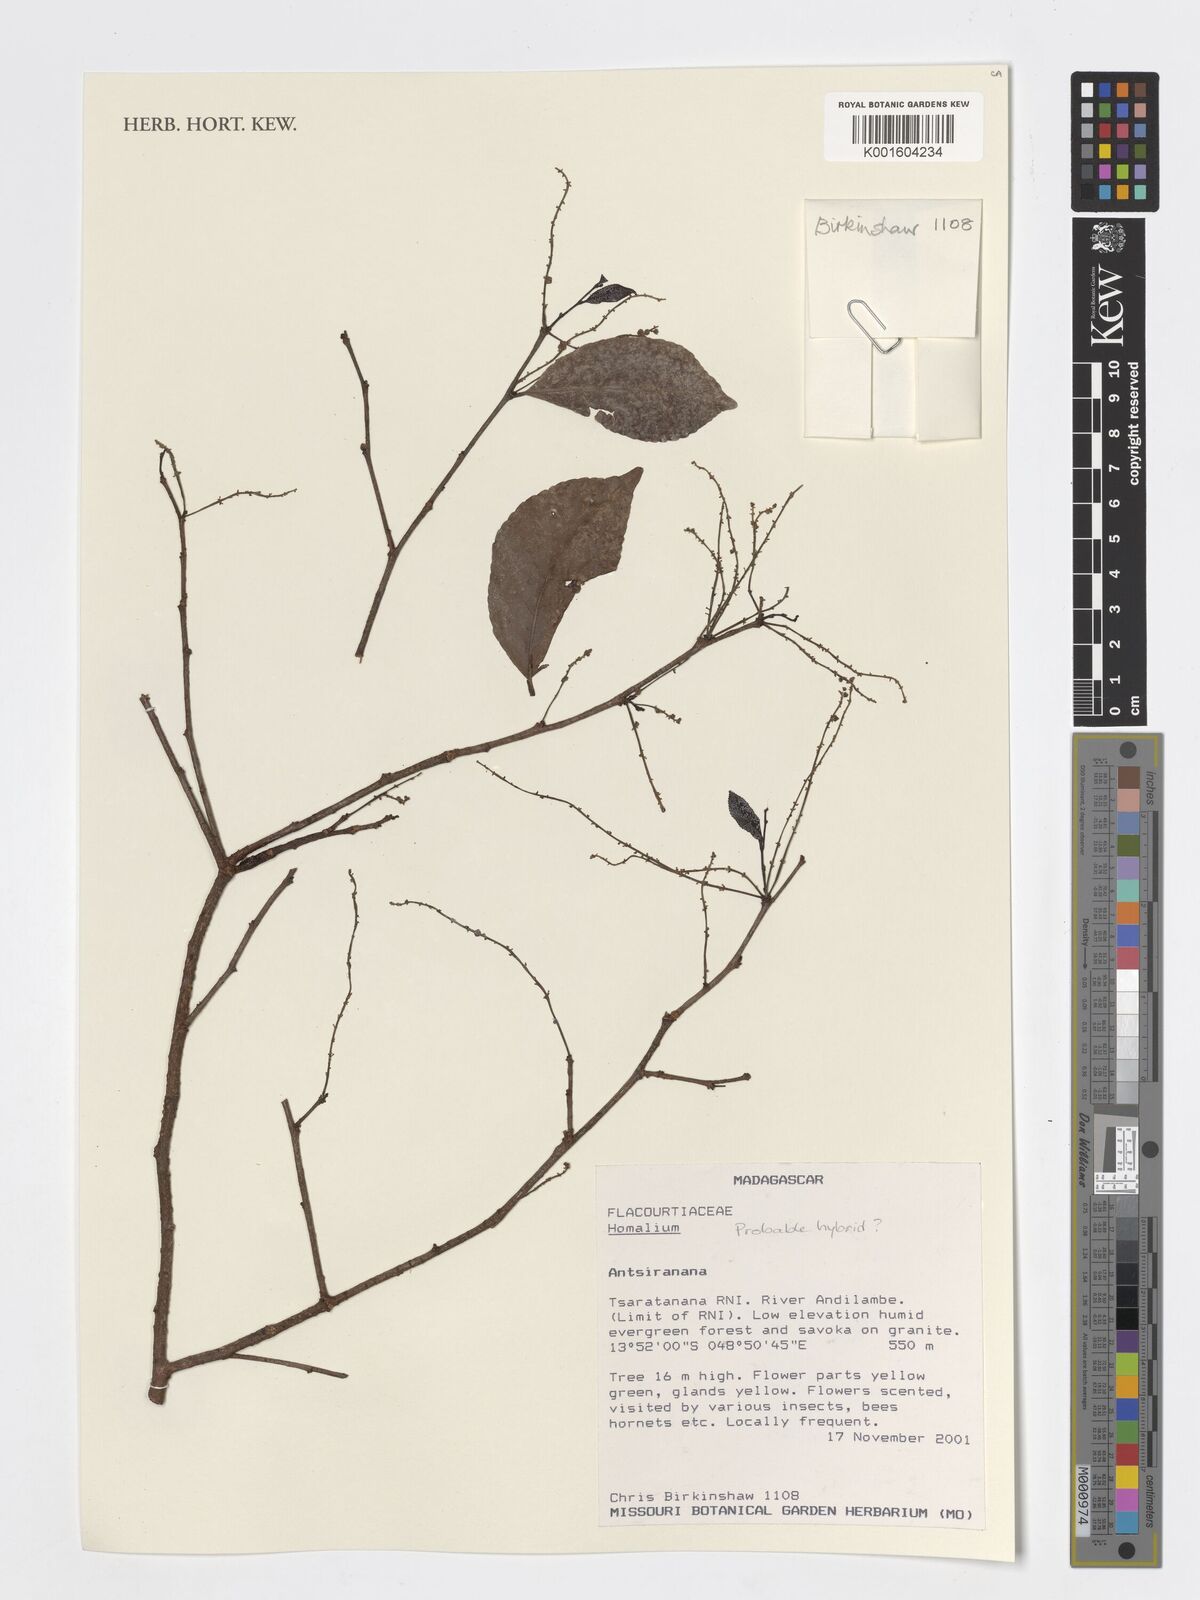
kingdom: Plantae
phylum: Tracheophyta
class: Magnoliopsida
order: Malpighiales
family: Salicaceae
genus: Homalium
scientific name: Homalium
